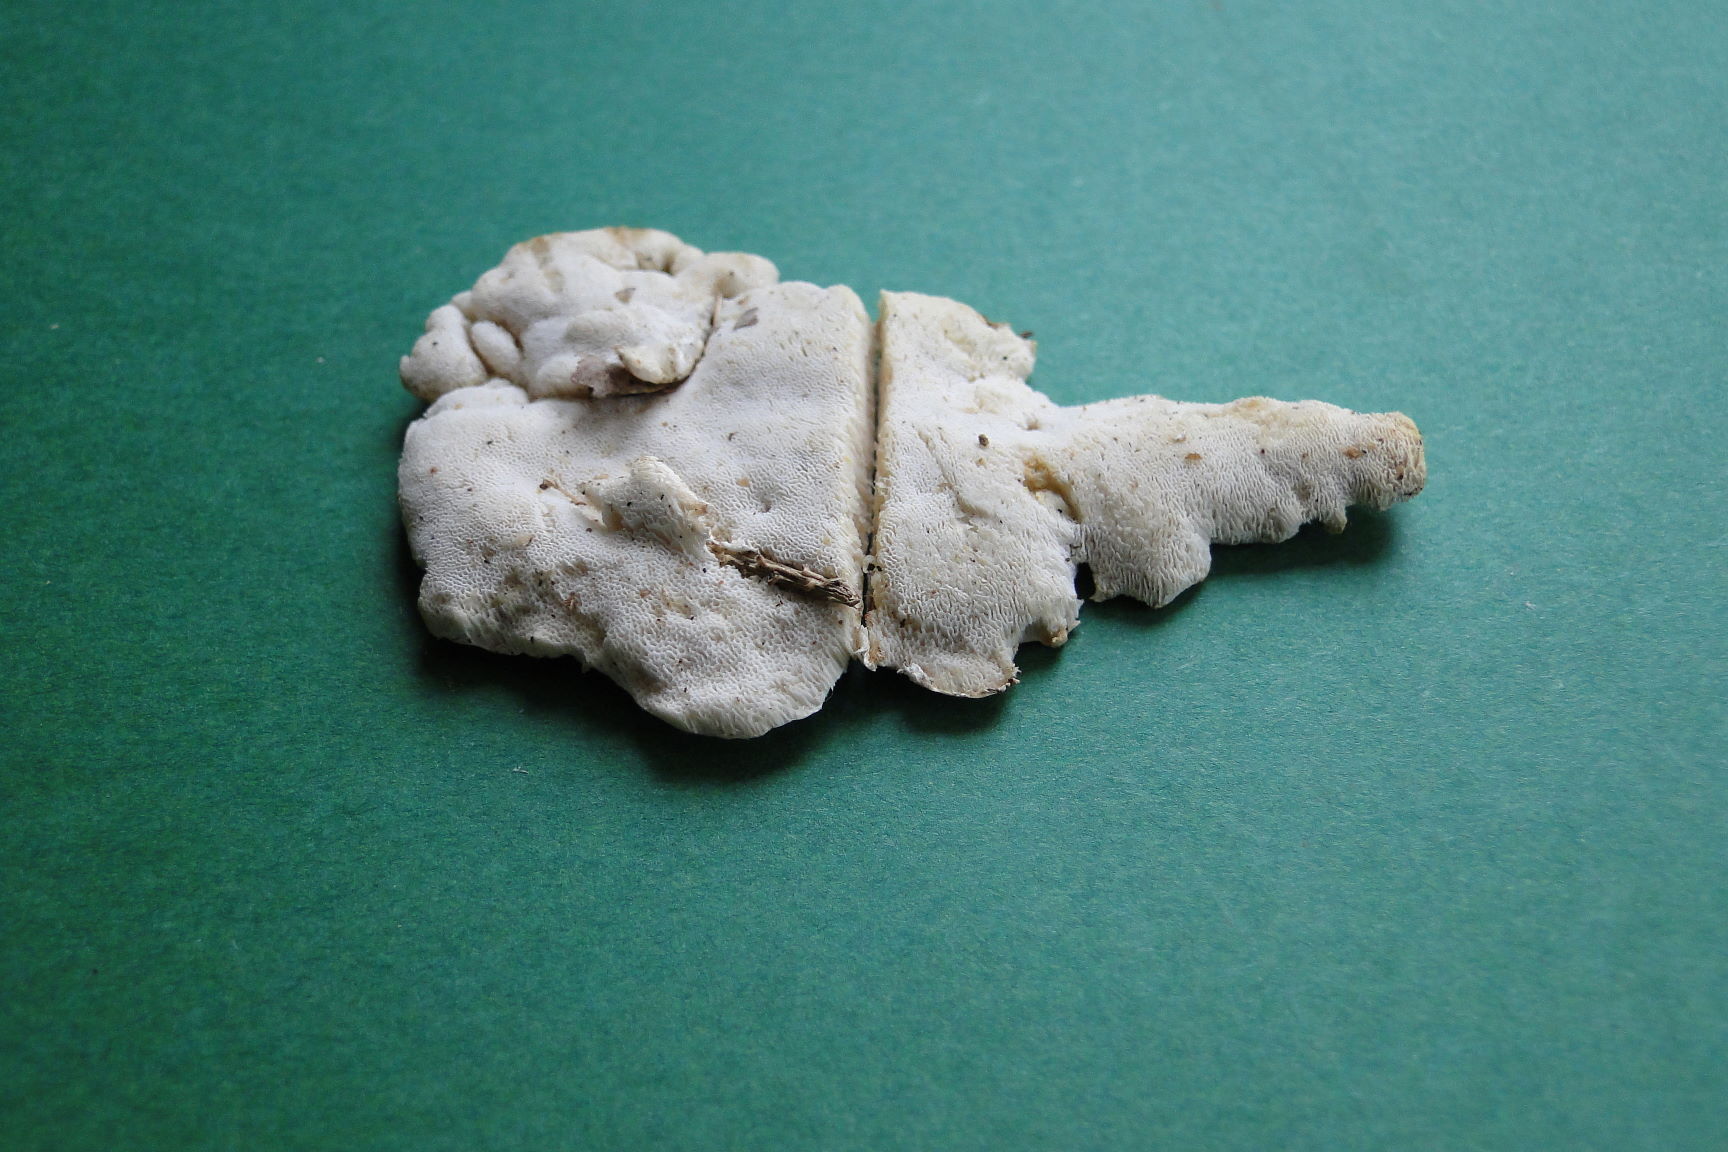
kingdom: Fungi
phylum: Basidiomycota
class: Agaricomycetes
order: Polyporales
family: Dacryobolaceae
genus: Postia
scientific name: Postia sericeomollis
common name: flad kødporesvamp
